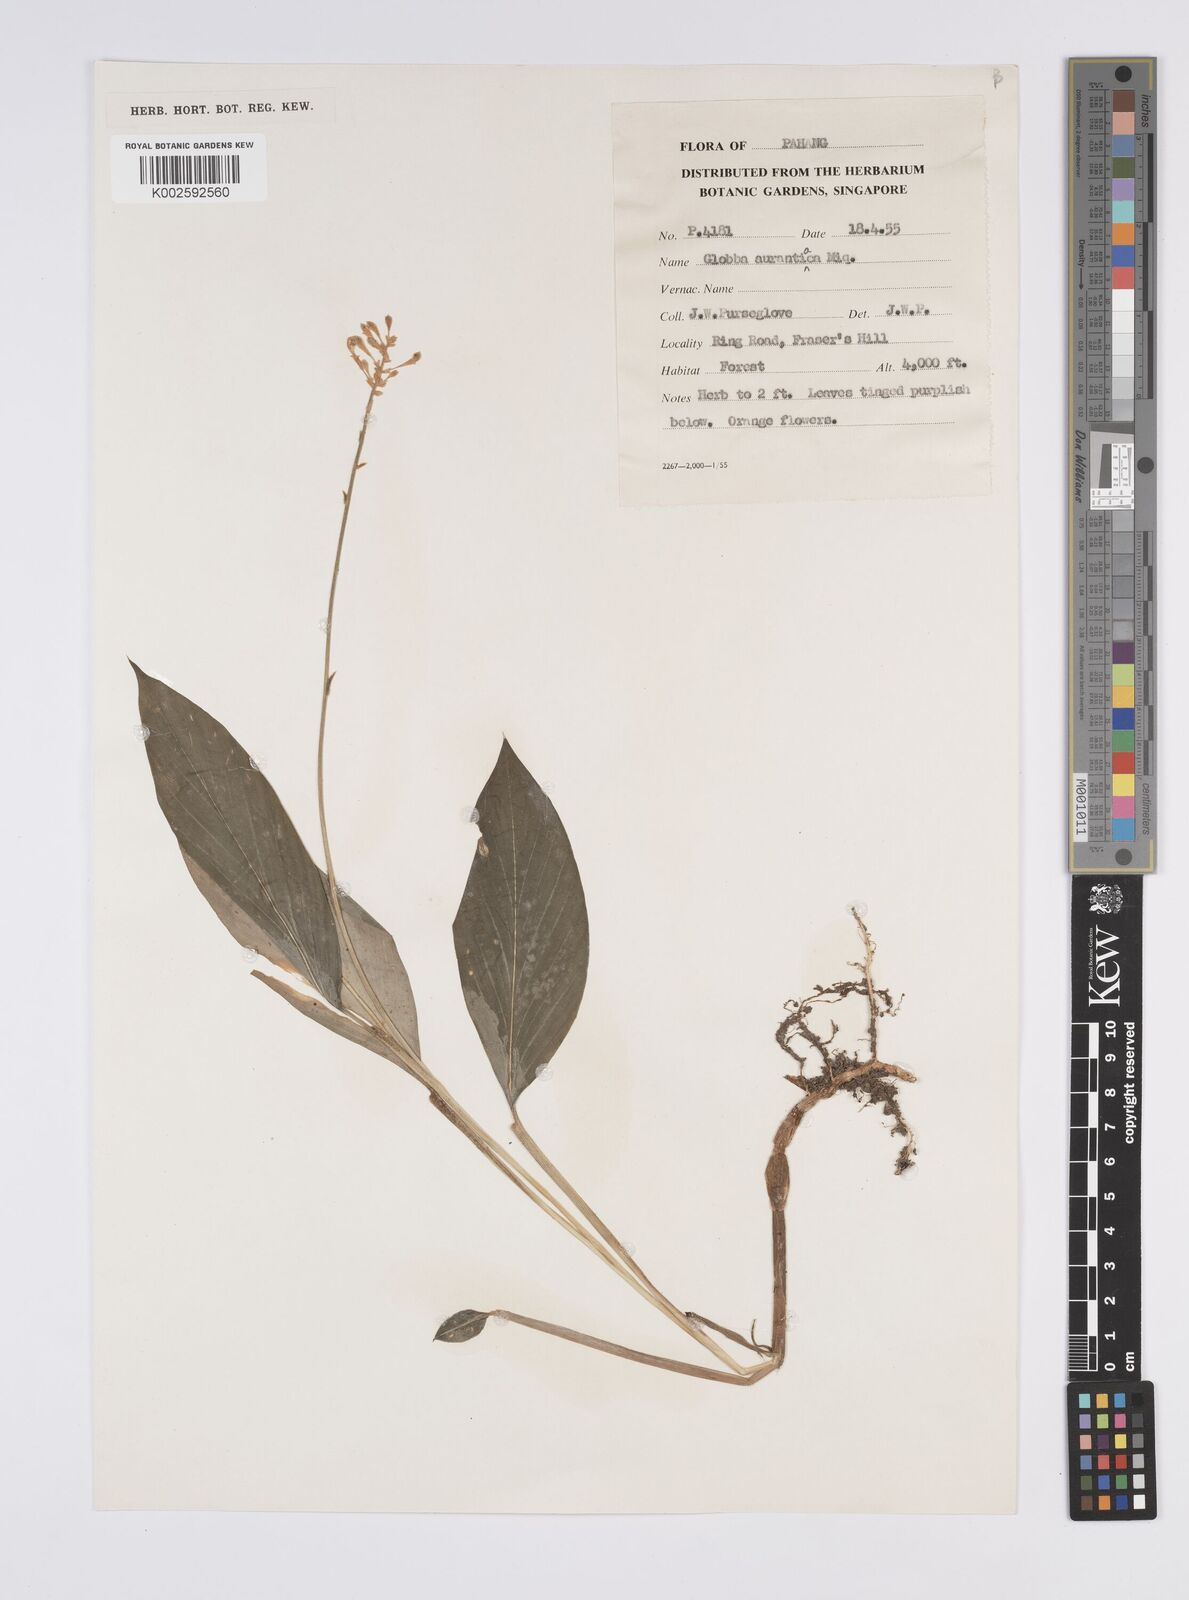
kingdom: Plantae
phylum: Tracheophyta
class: Liliopsida
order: Zingiberales
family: Zingiberaceae
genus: Globba
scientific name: Globba variabilis
